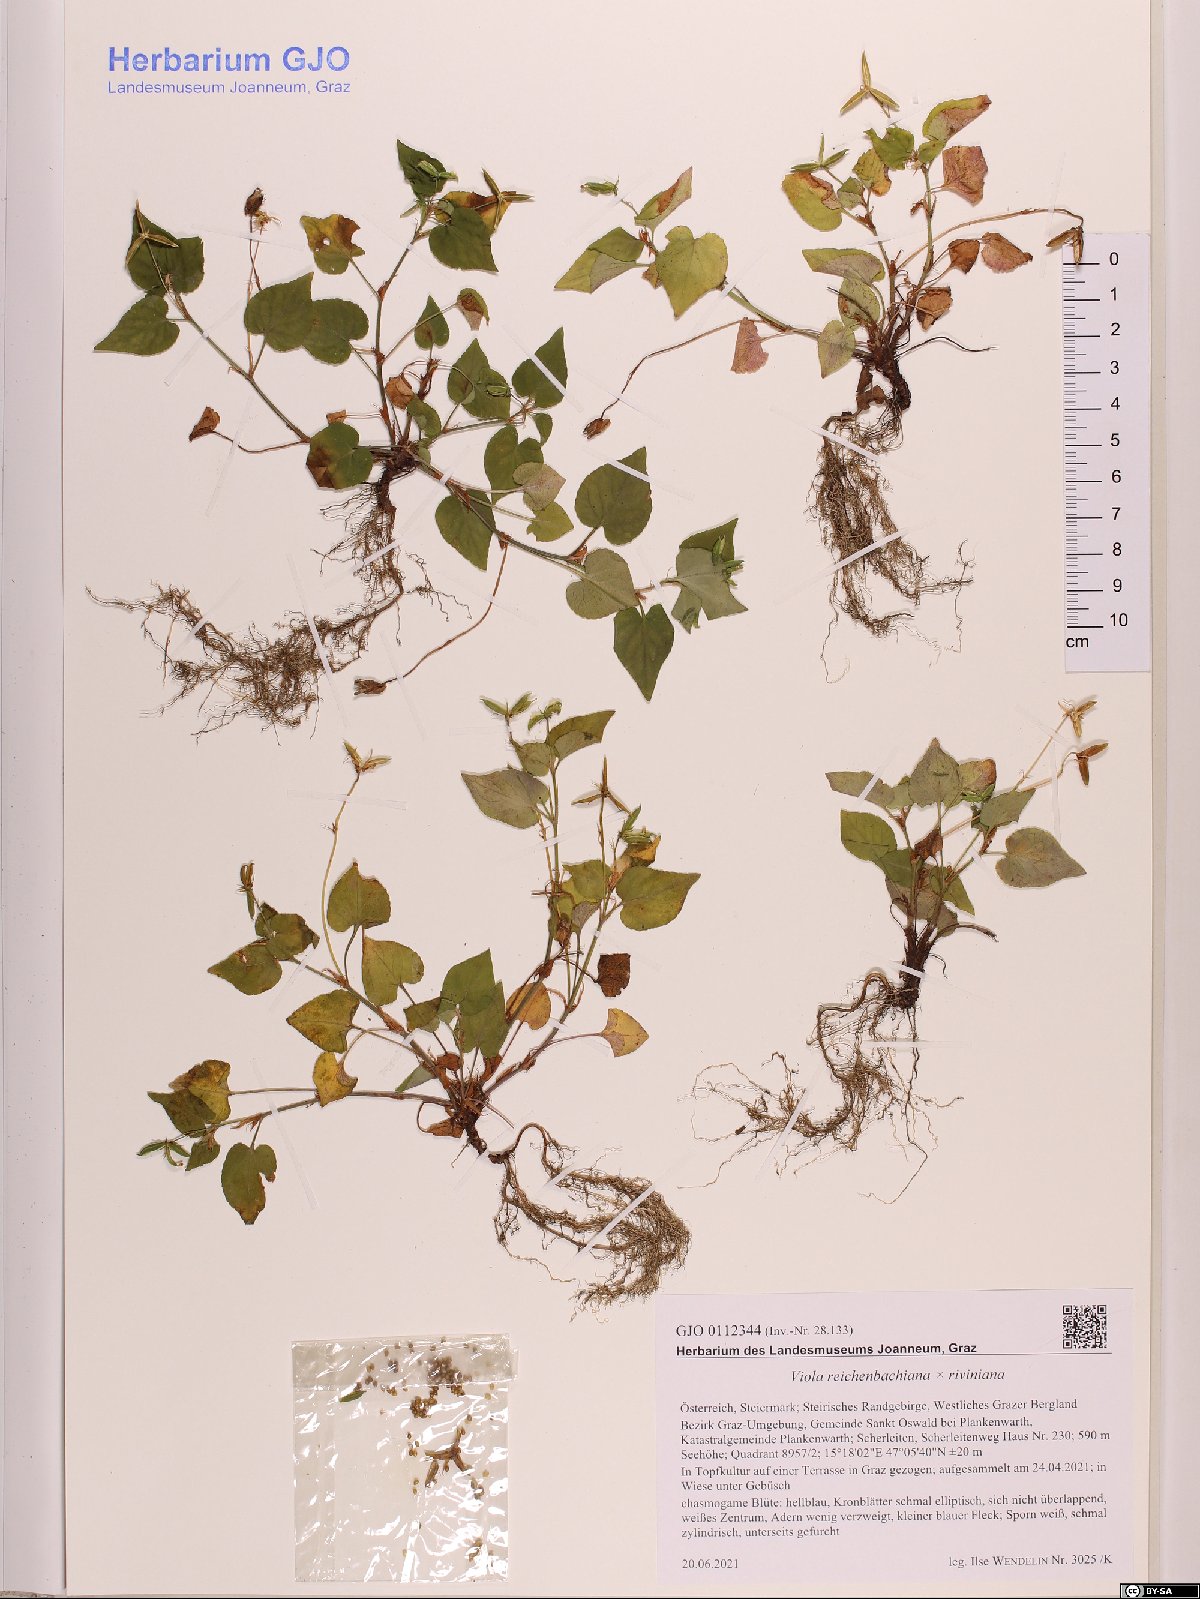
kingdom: Plantae
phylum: Tracheophyta
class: Magnoliopsida
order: Malpighiales
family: Violaceae
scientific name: Violaceae
